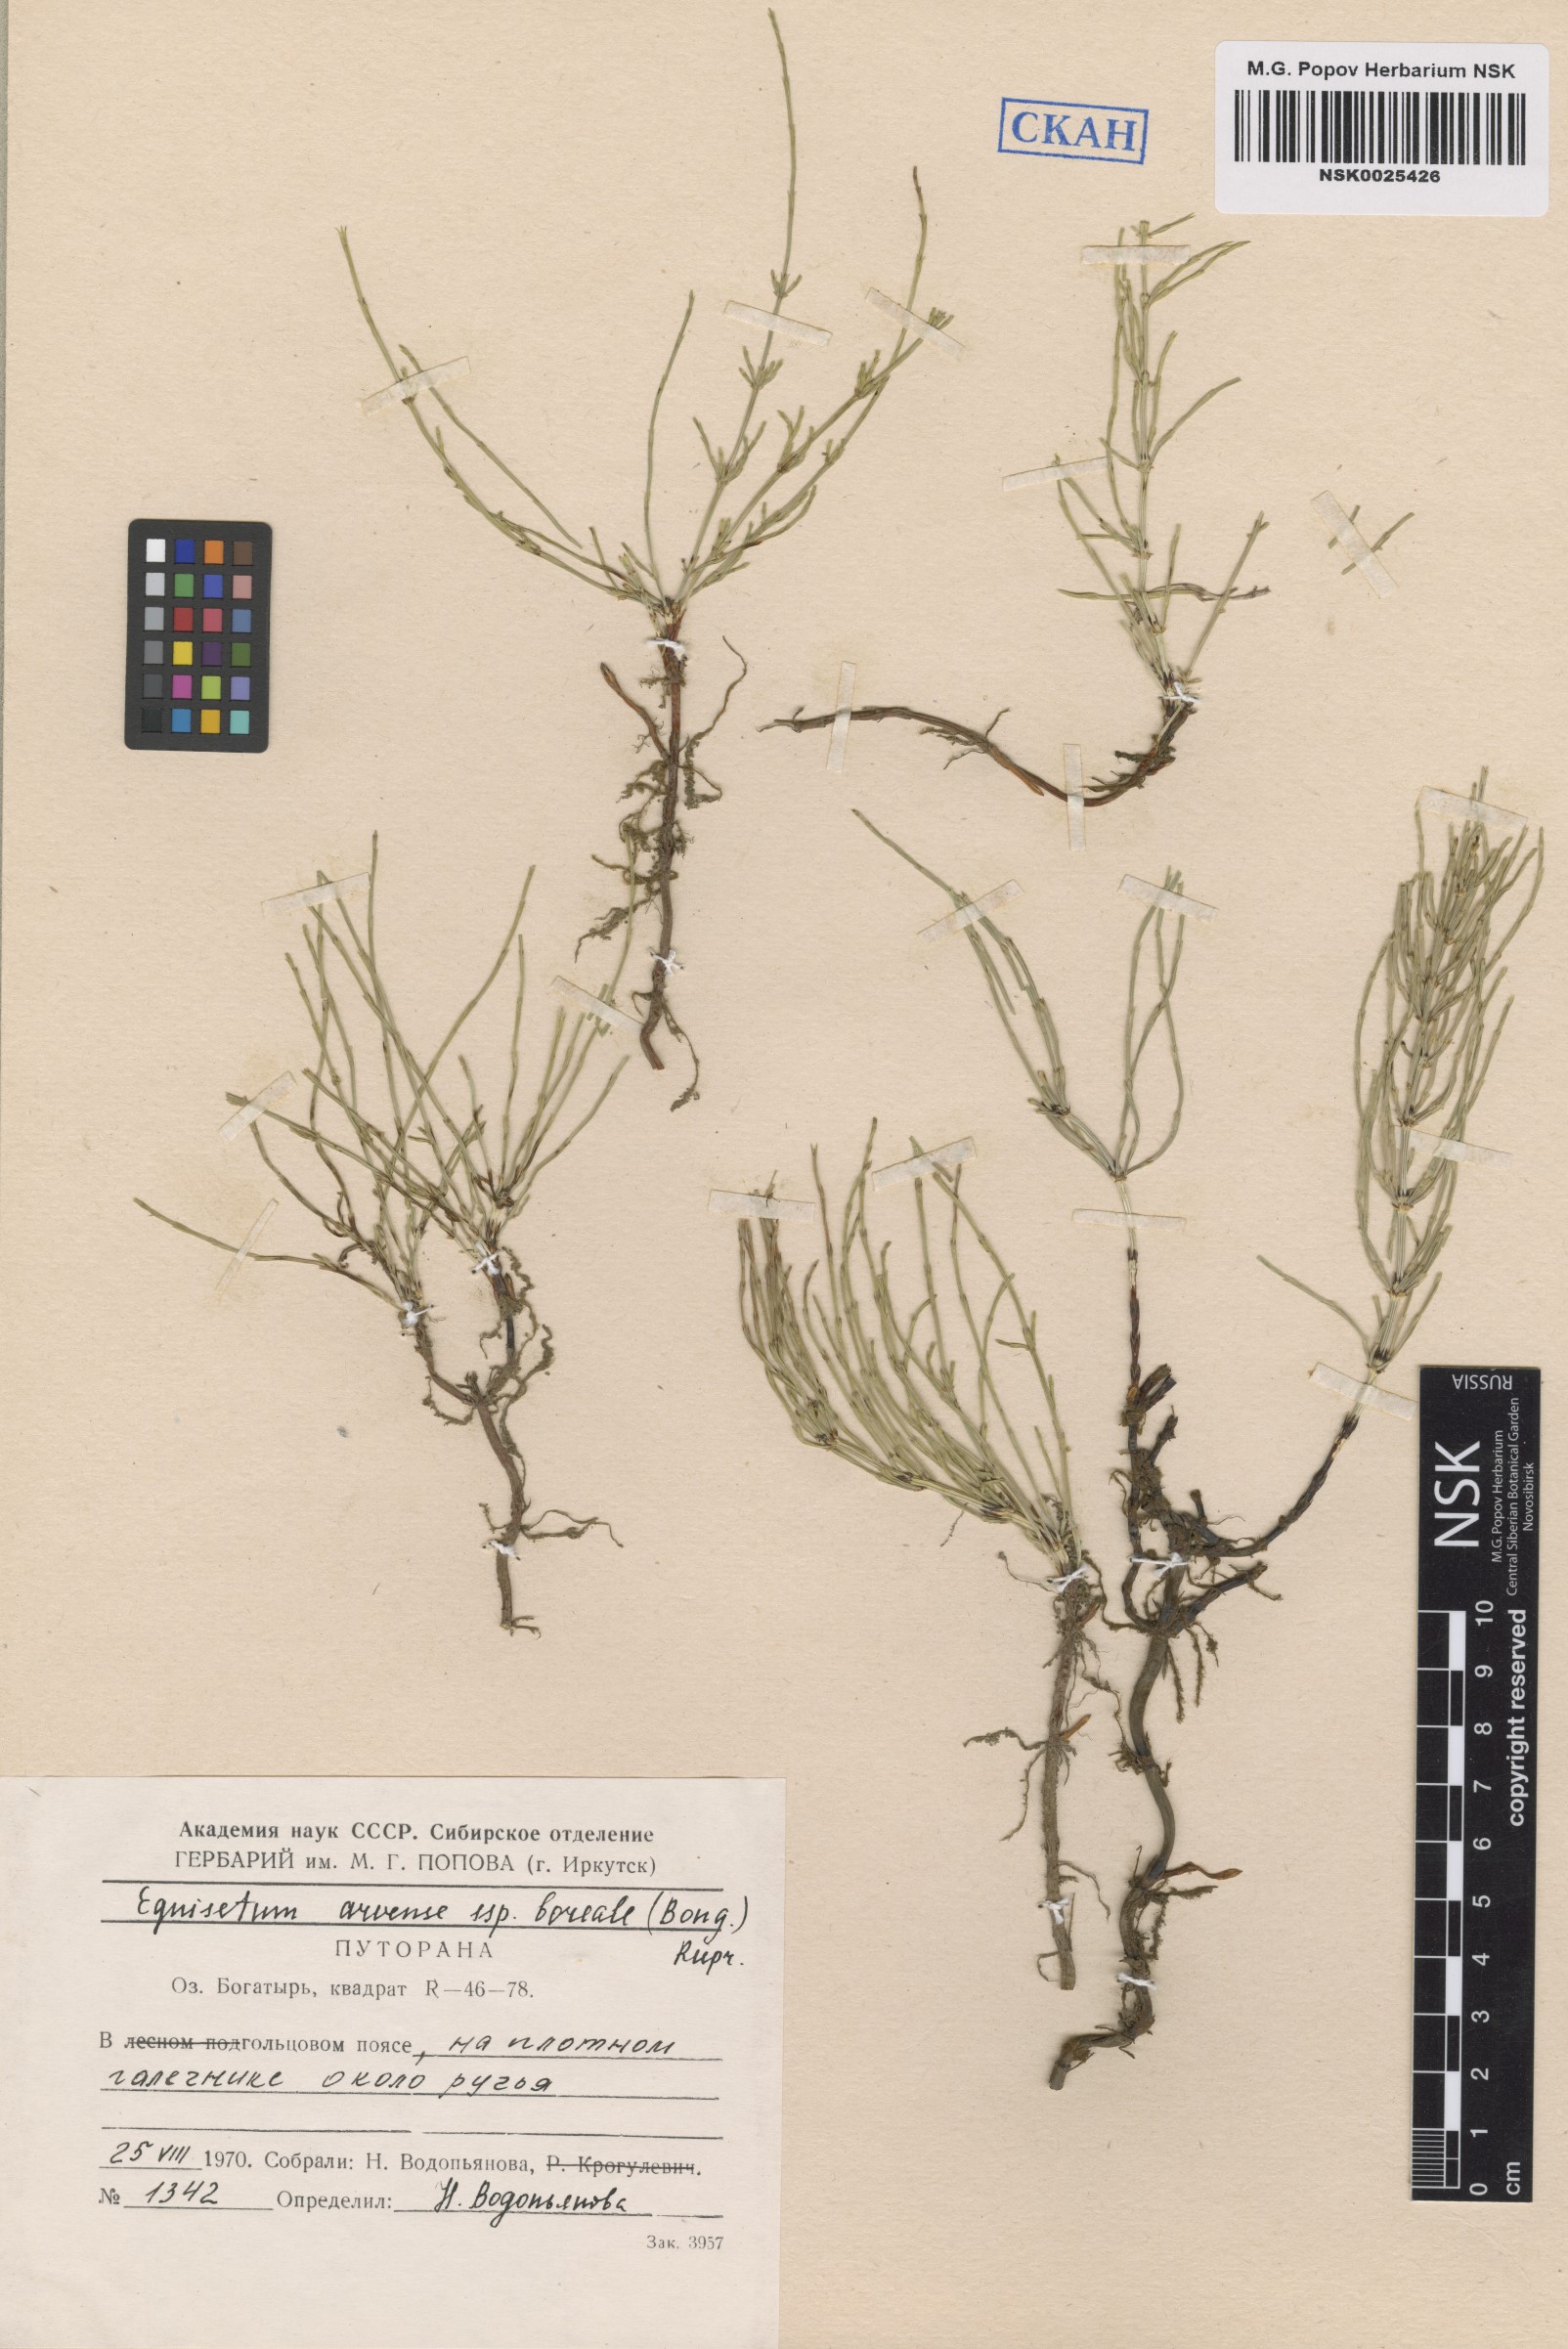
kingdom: Plantae
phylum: Tracheophyta
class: Polypodiopsida
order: Equisetales
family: Equisetaceae
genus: Equisetum
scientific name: Equisetum arvense
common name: Field horsetail
